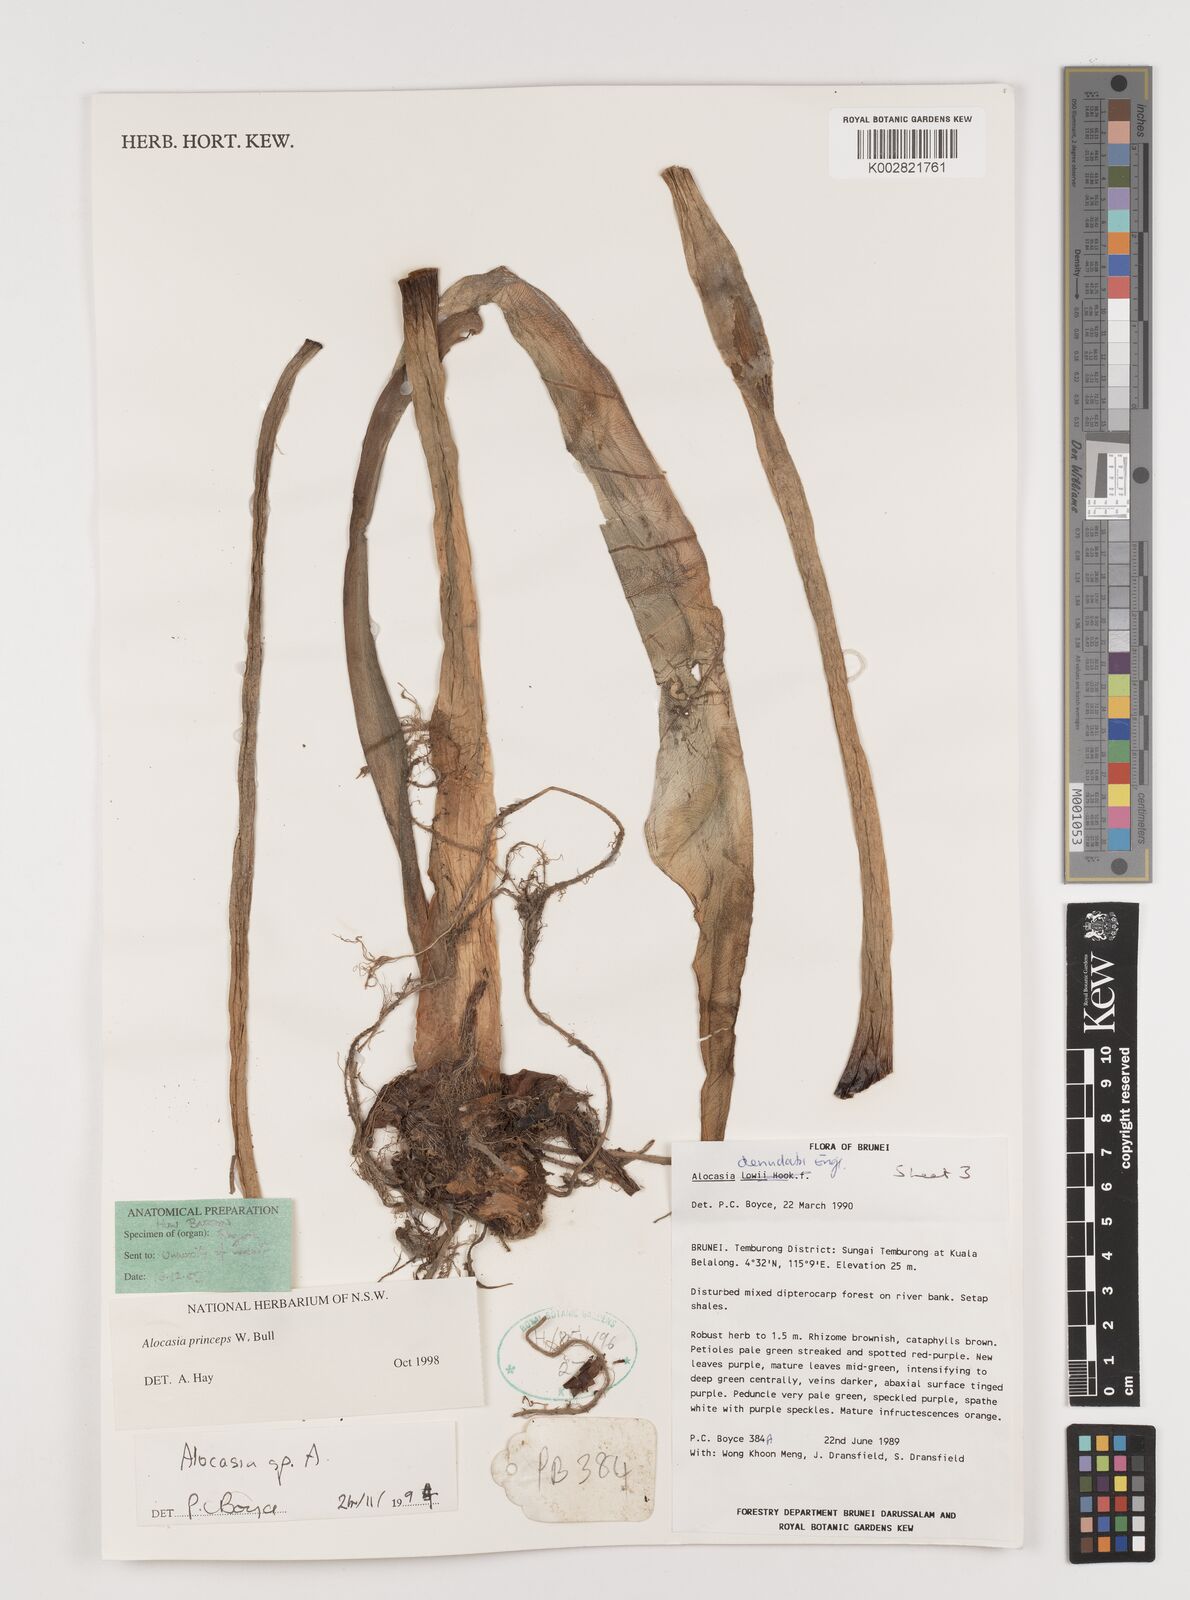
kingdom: Plantae
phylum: Tracheophyta
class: Liliopsida
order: Alismatales
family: Araceae
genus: Alocasia
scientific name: Alocasia princeps
